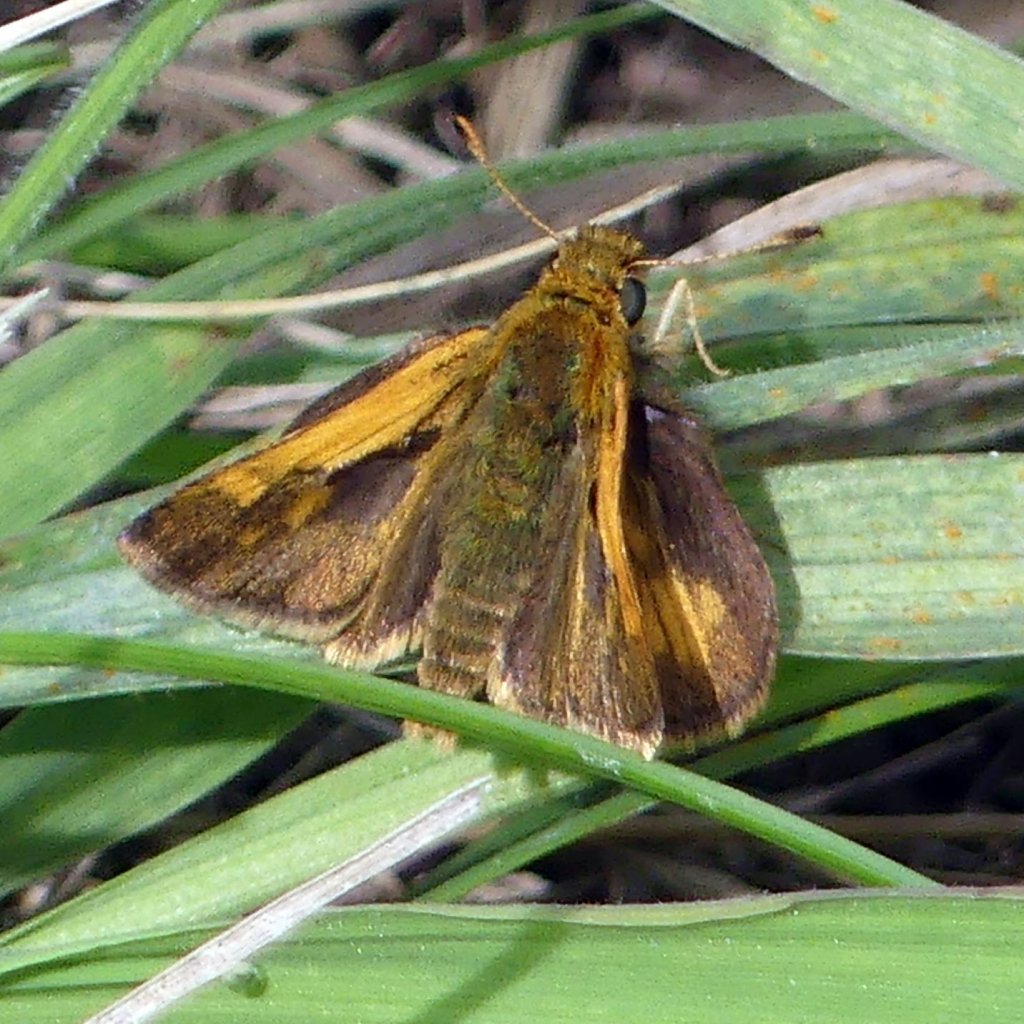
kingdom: Animalia
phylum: Arthropoda
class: Insecta
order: Lepidoptera
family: Hesperiidae
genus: Polites
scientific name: Polites coras
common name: Peck's Skipper
